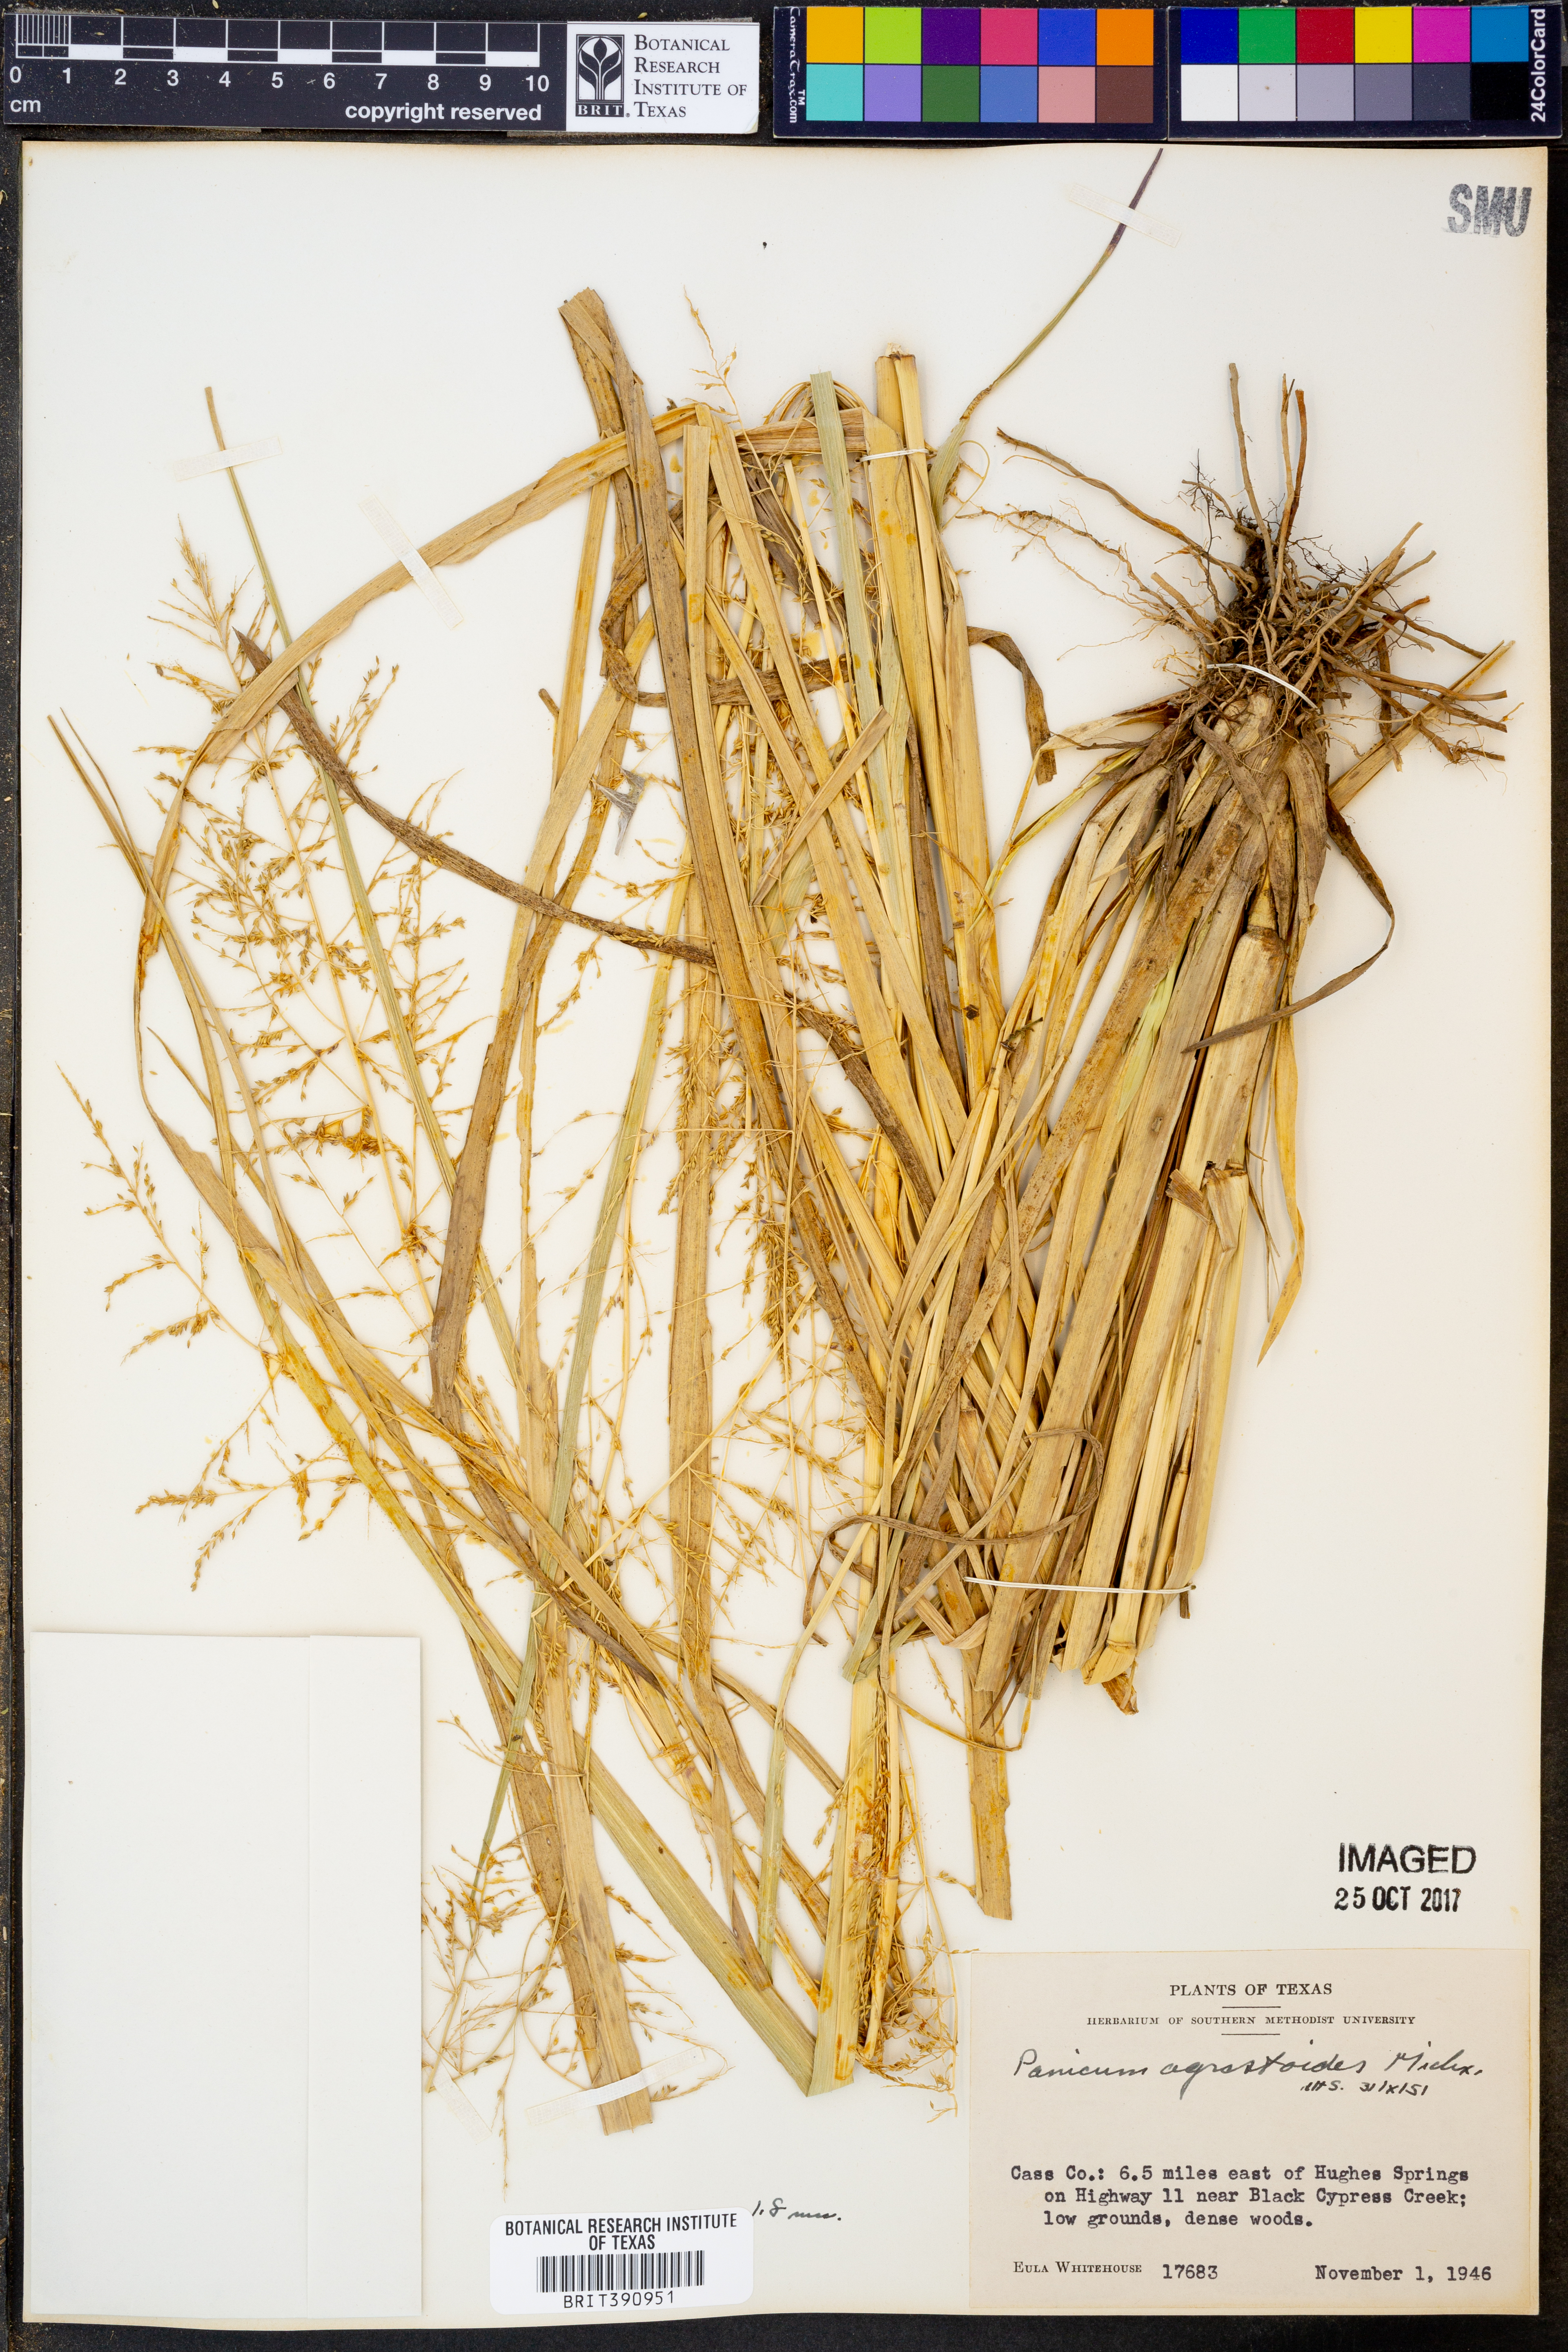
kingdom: Plantae
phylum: Tracheophyta
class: Liliopsida
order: Poales
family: Poaceae
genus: Steinchisma
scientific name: Steinchisma laxum
